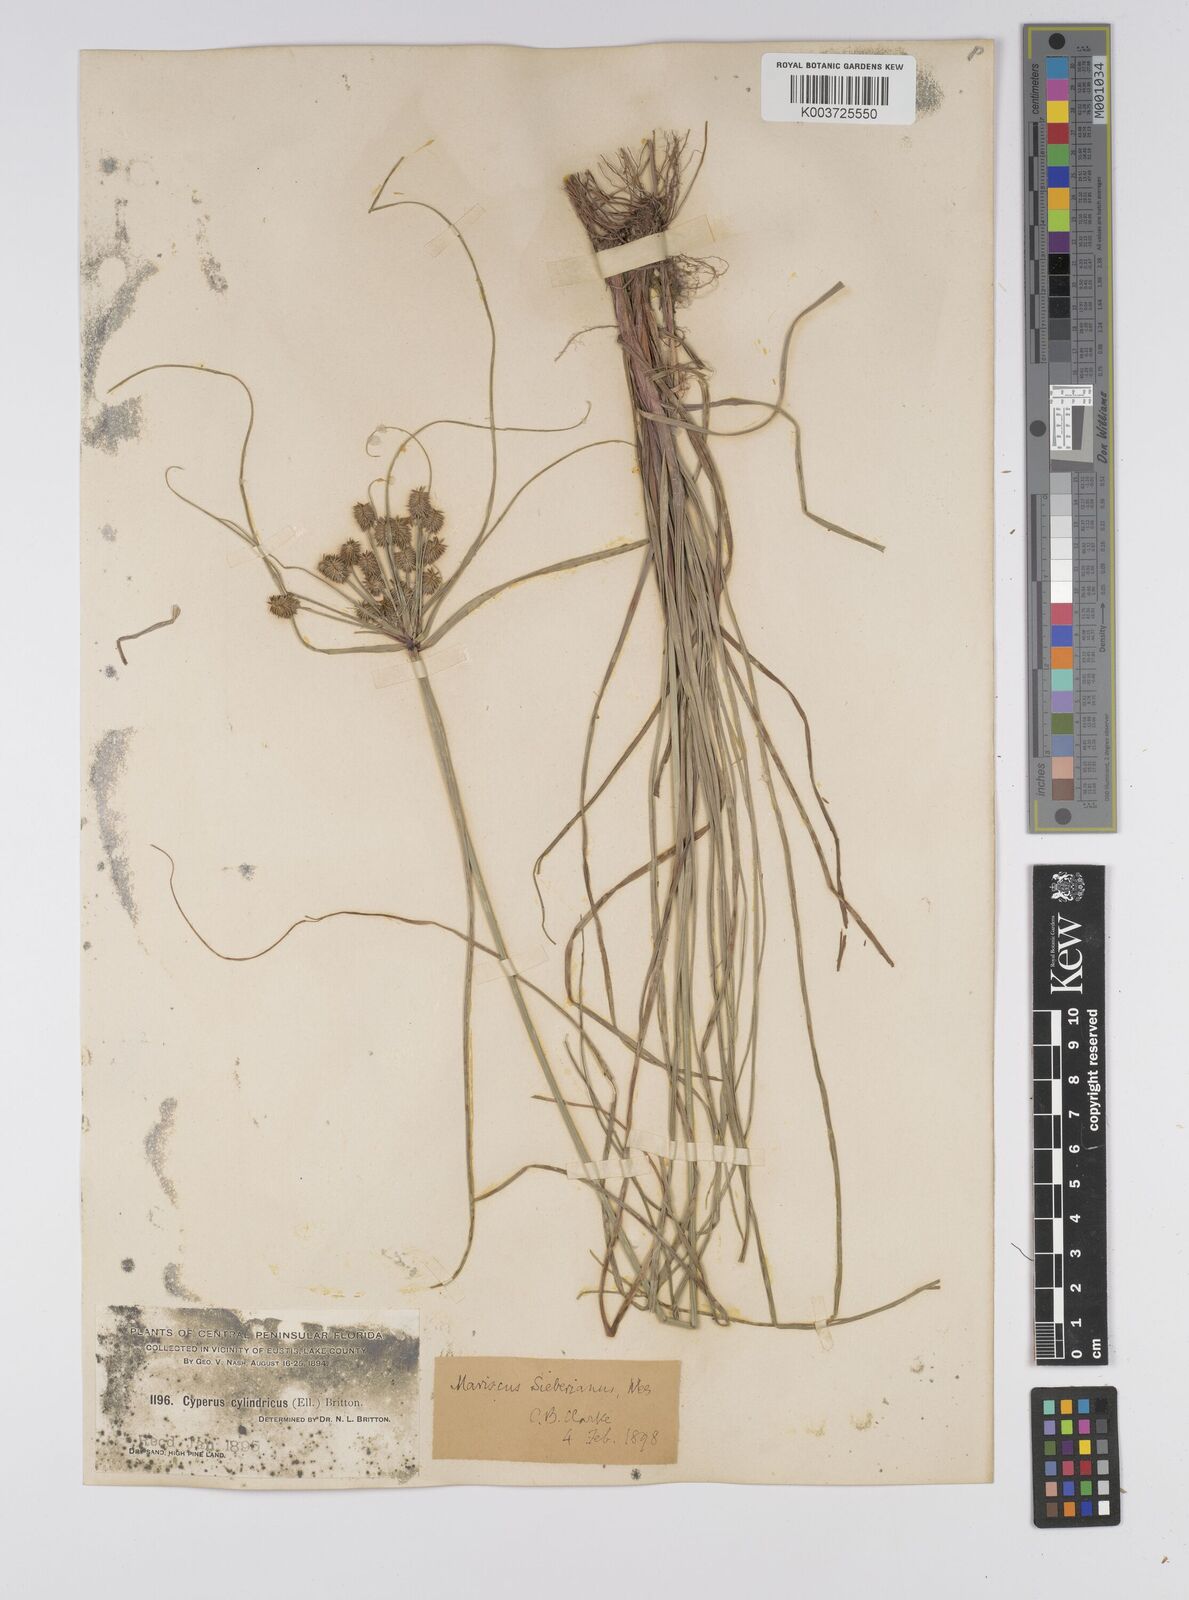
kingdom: Plantae
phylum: Tracheophyta
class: Liliopsida
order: Poales
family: Cyperaceae
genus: Cyperus
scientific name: Cyperus cyperoides
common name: Pacific island flat sedge
